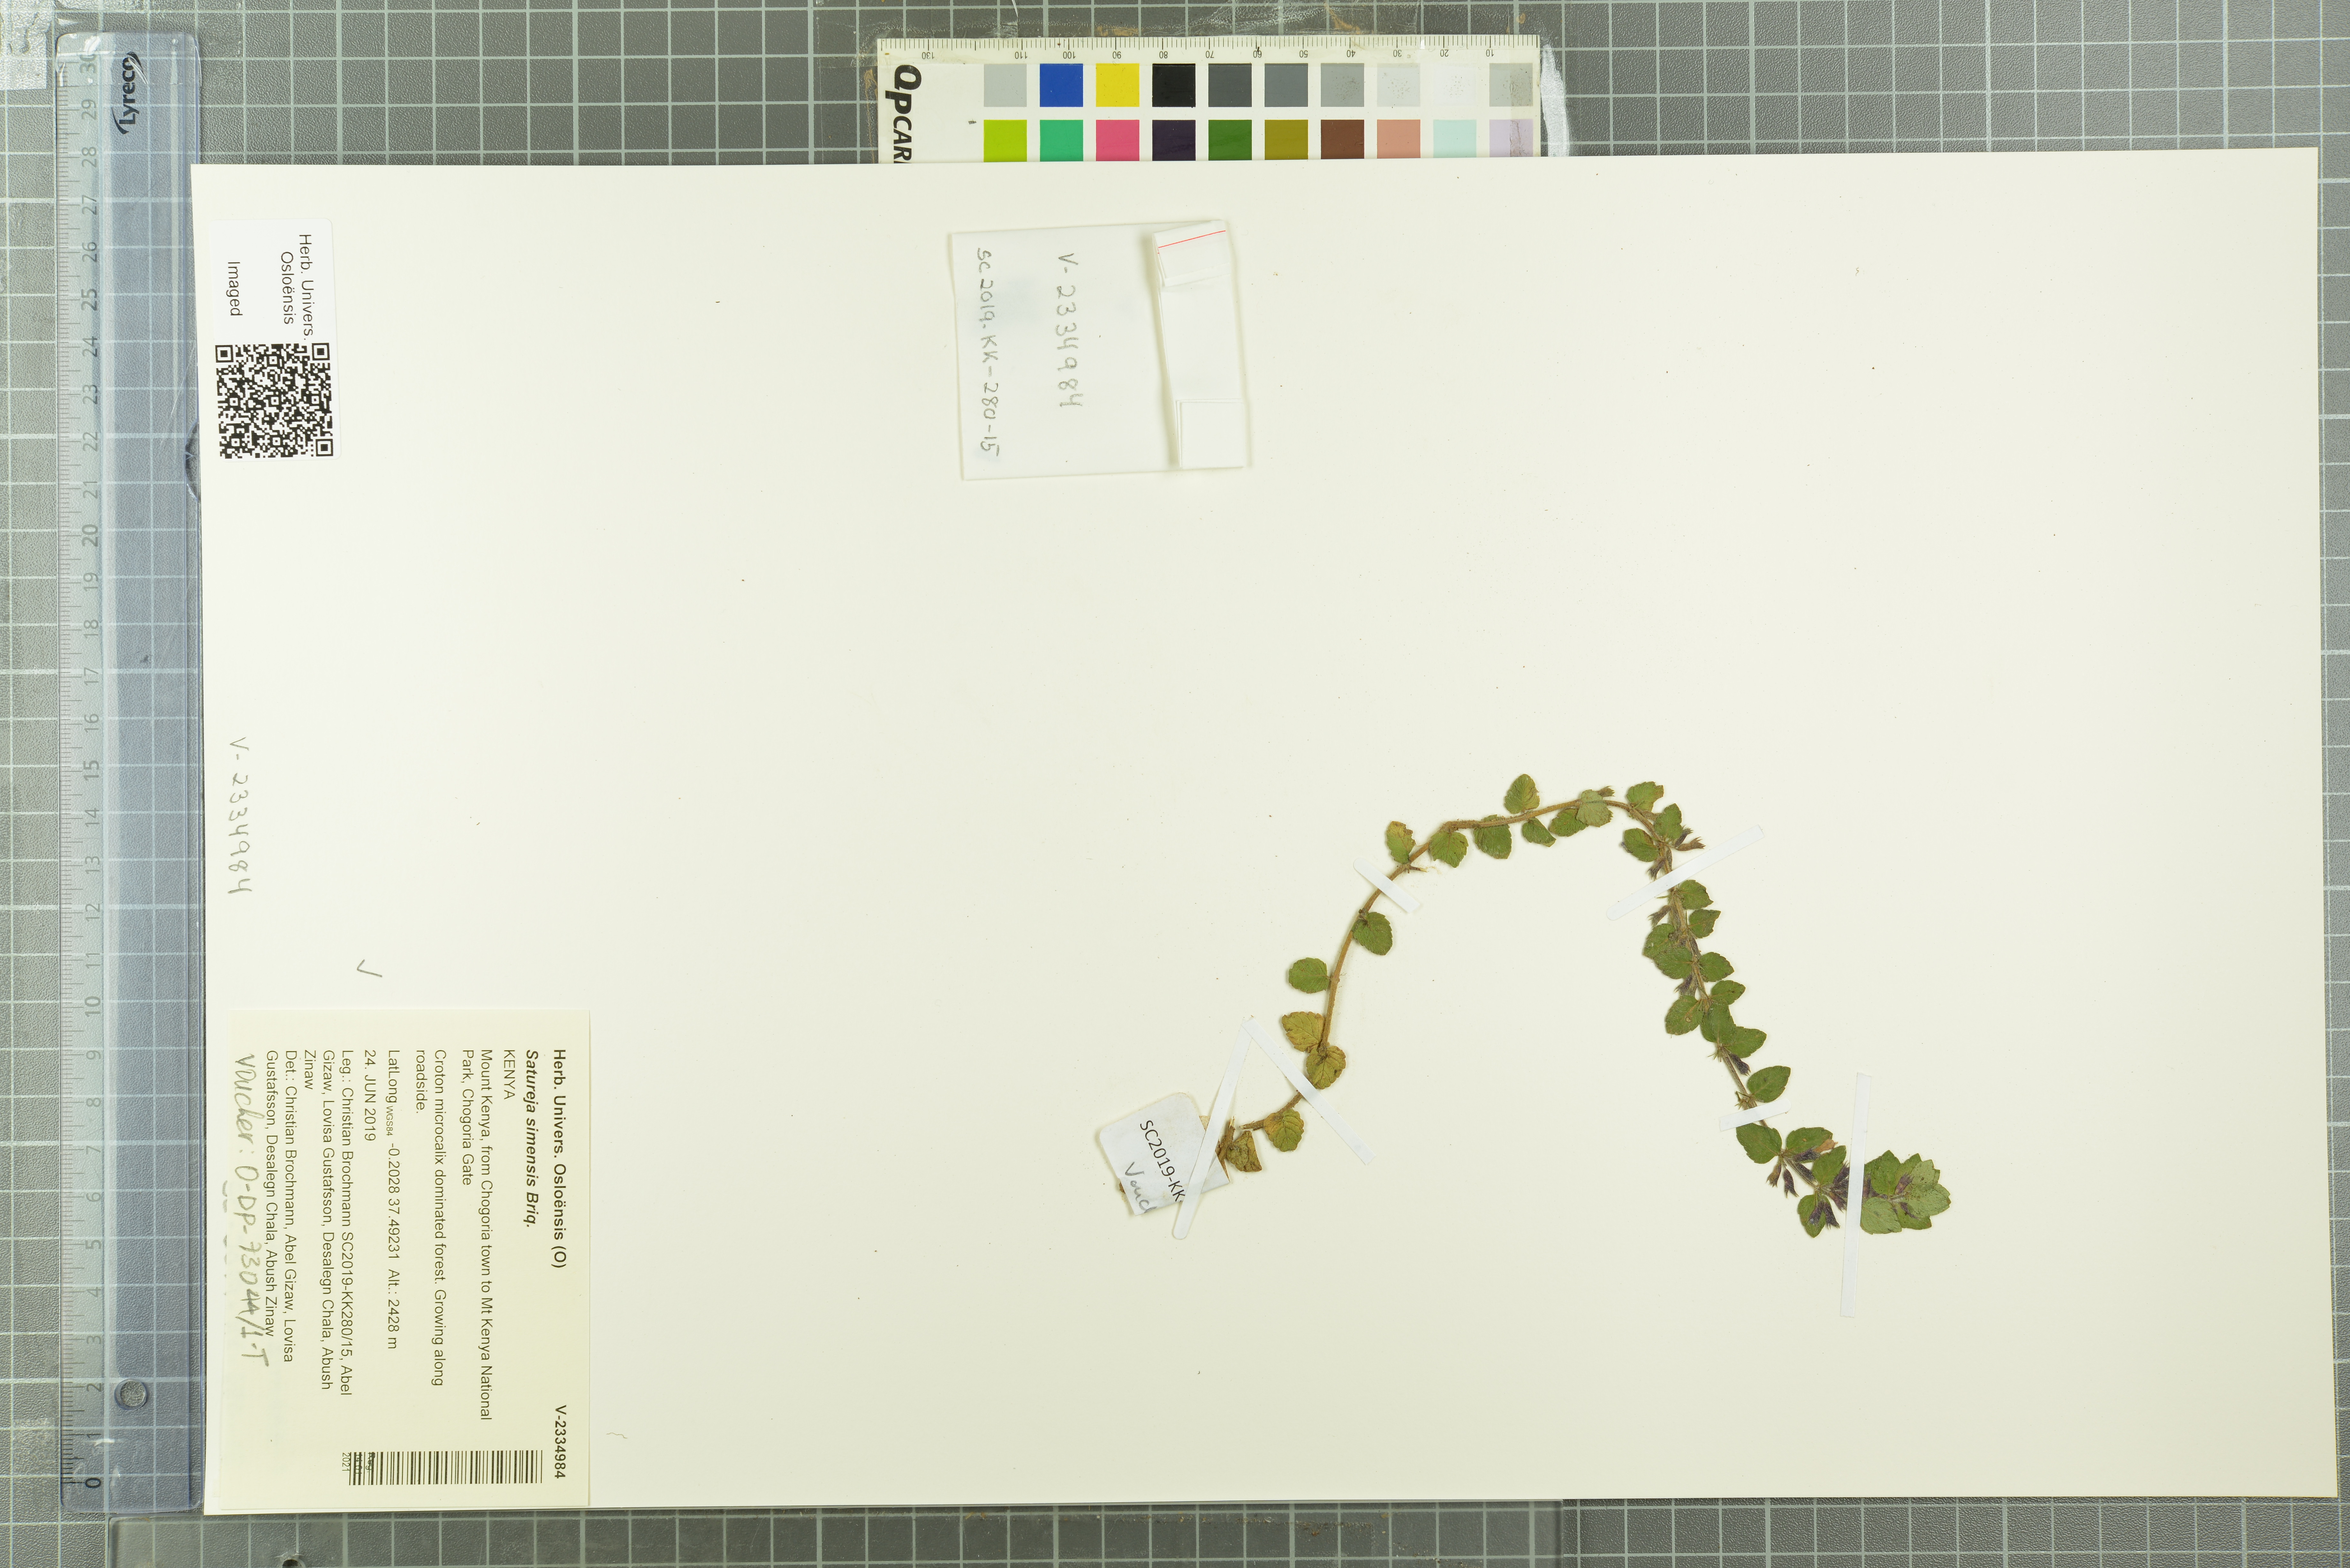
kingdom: Plantae
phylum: Tracheophyta
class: Magnoliopsida
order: Lamiales
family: Lamiaceae
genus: Clinopodium
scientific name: Clinopodium simense
